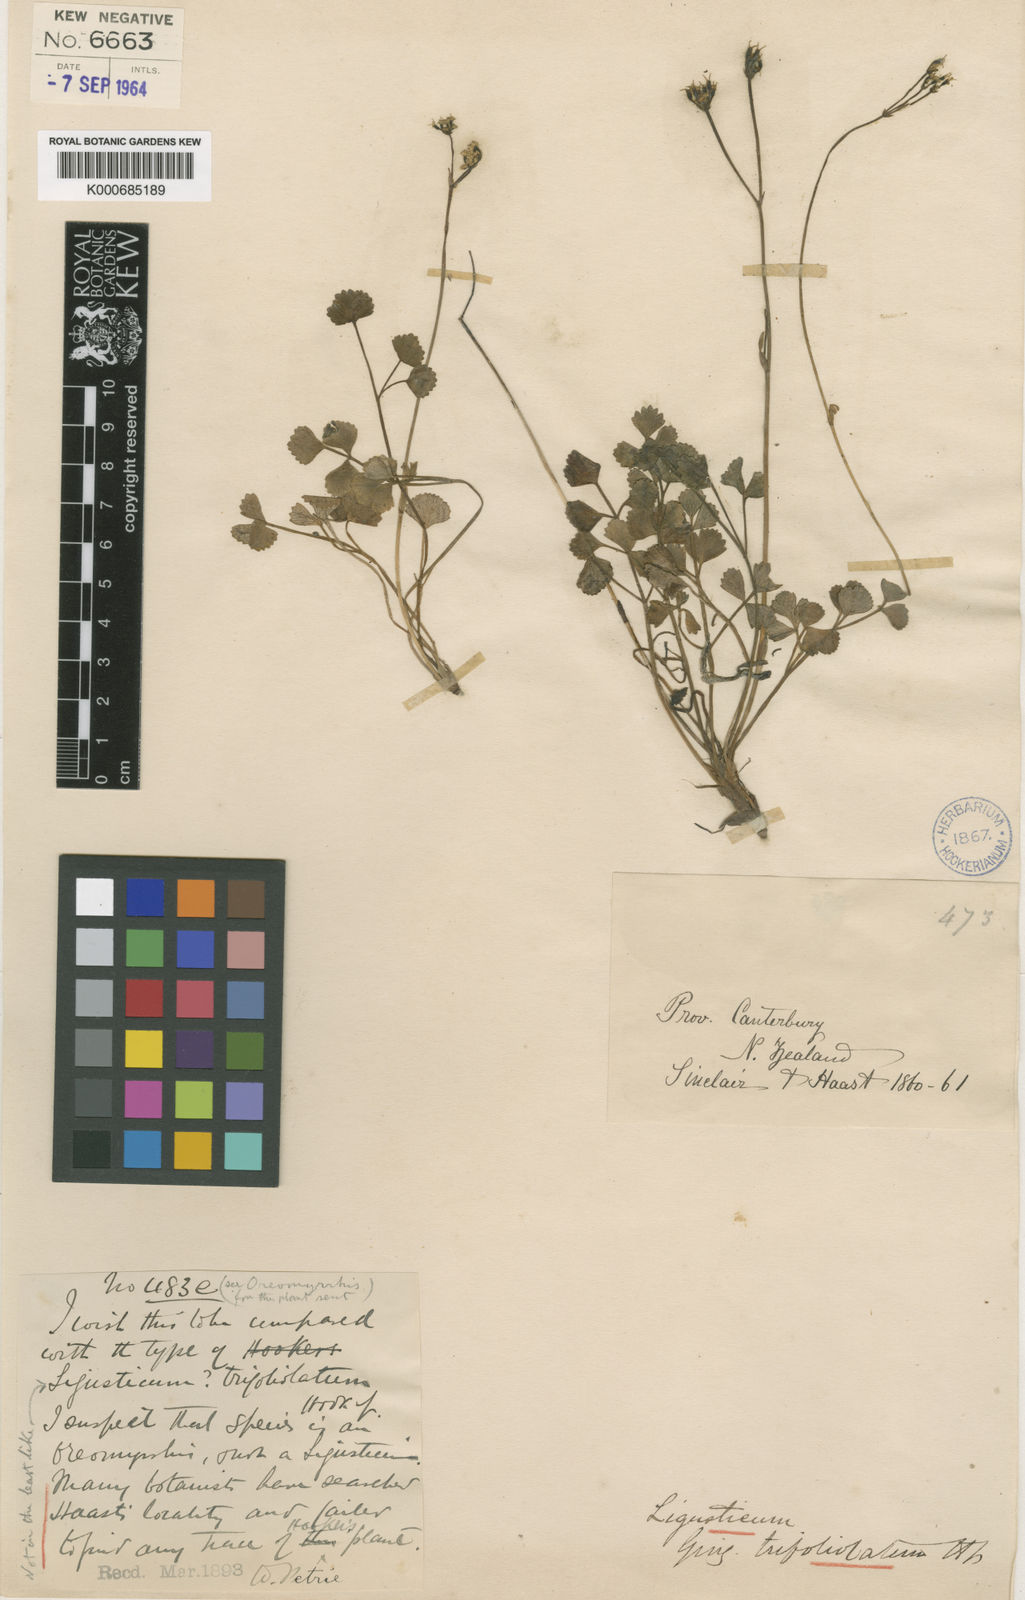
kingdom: Plantae
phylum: Tracheophyta
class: Magnoliopsida
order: Apiales
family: Apiaceae
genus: Gingidia
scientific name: Gingidia trifoliolata
